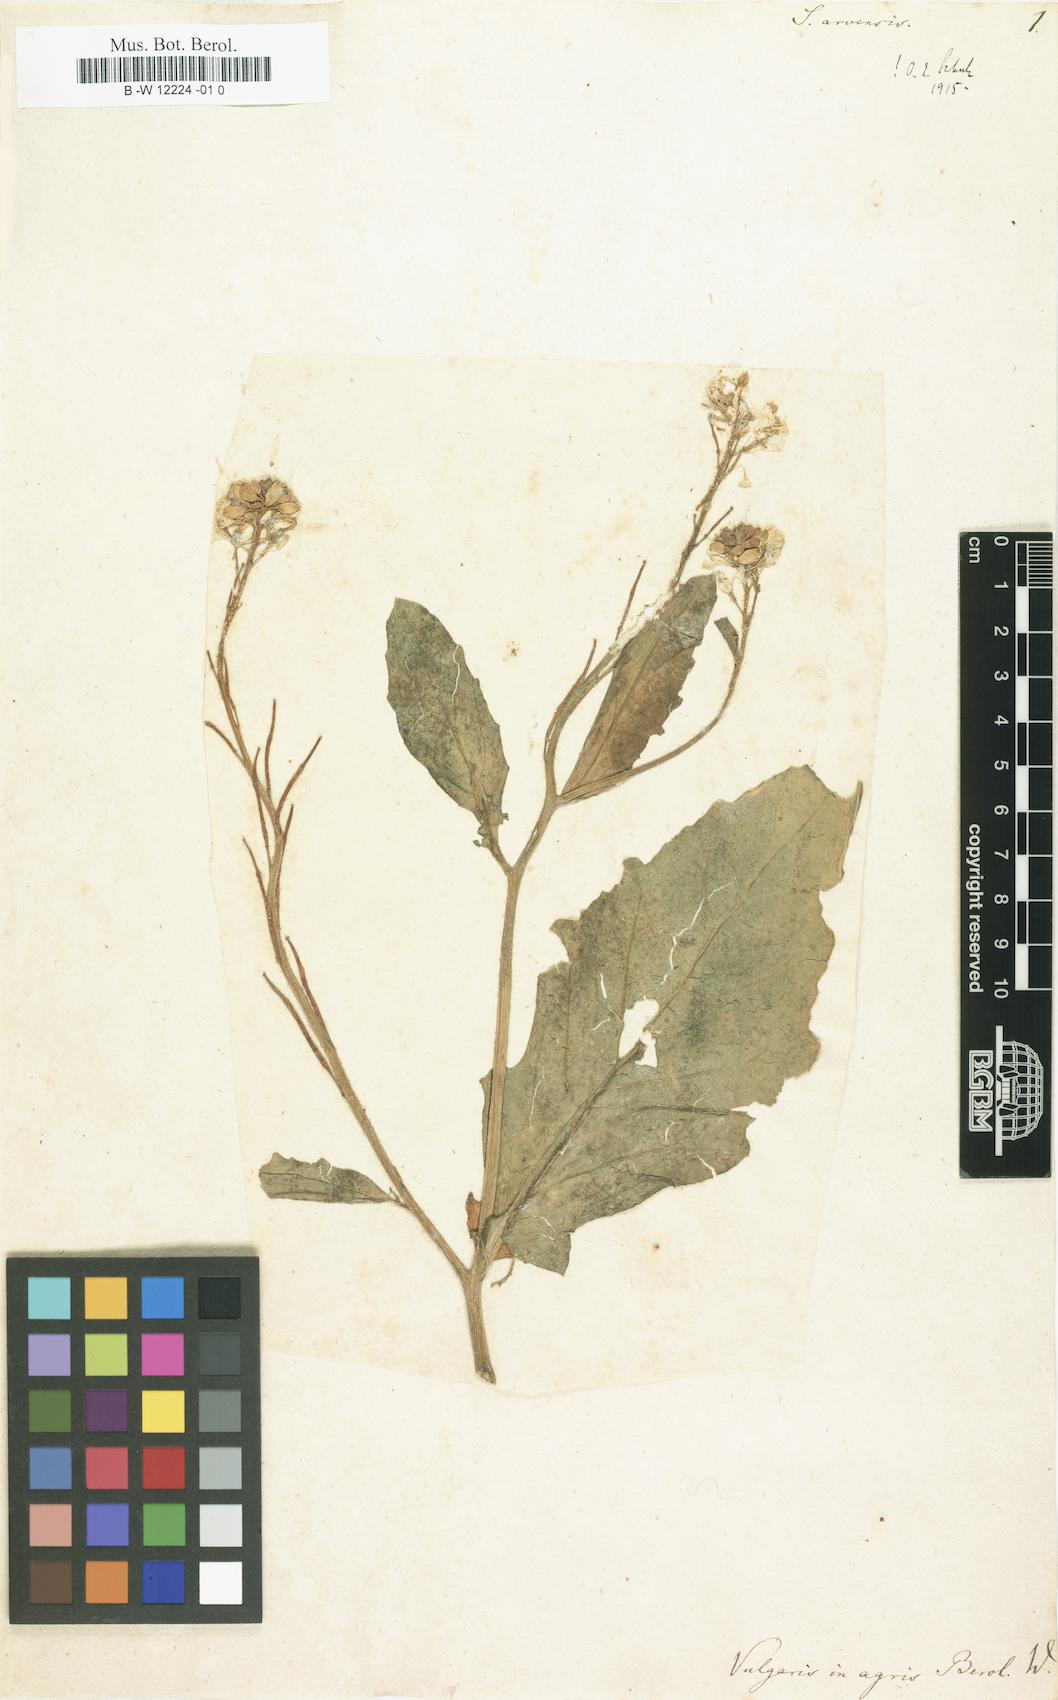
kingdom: Plantae
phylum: Tracheophyta
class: Magnoliopsida
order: Brassicales
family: Brassicaceae
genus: Sinapis
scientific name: Sinapis arvensis
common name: Charlock
